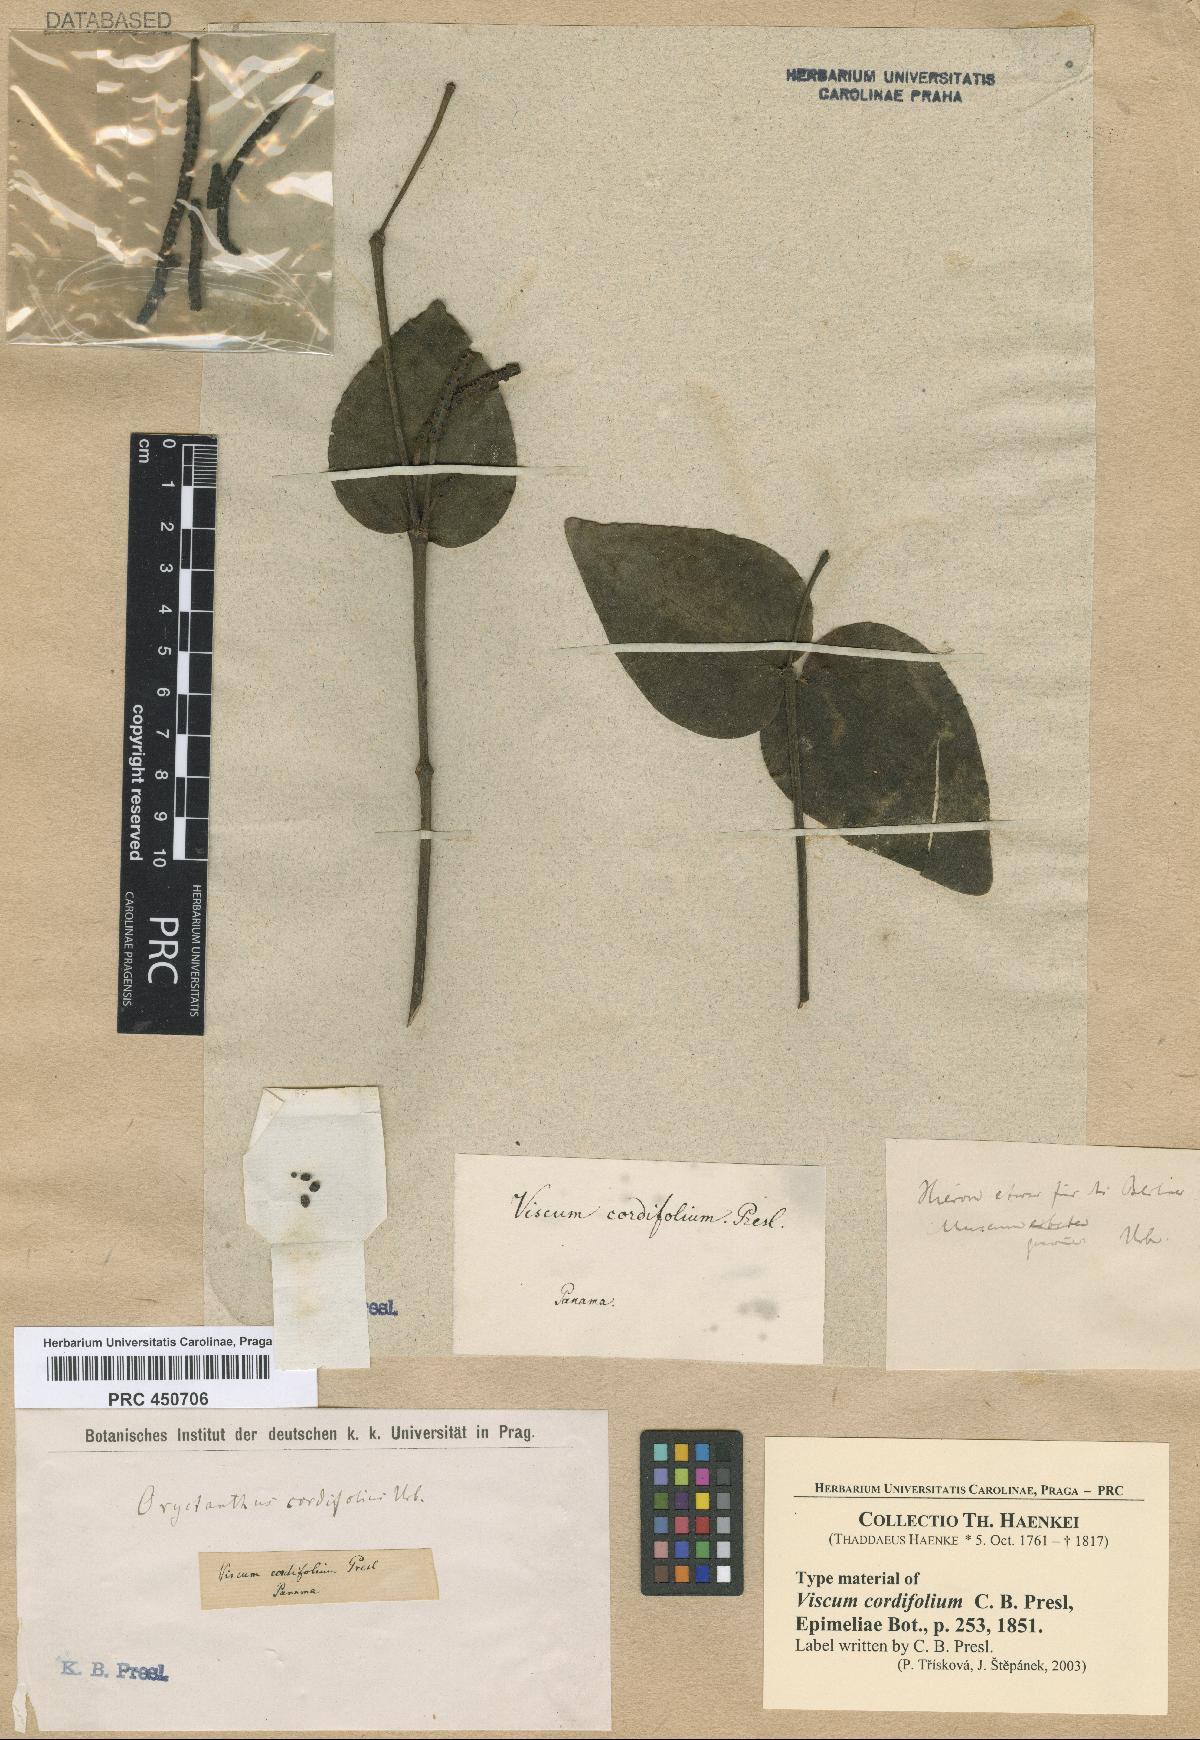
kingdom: Plantae
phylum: Tracheophyta
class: Magnoliopsida
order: Santalales
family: Viscaceae
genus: Phoradendron
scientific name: Phoradendron hexastichum
